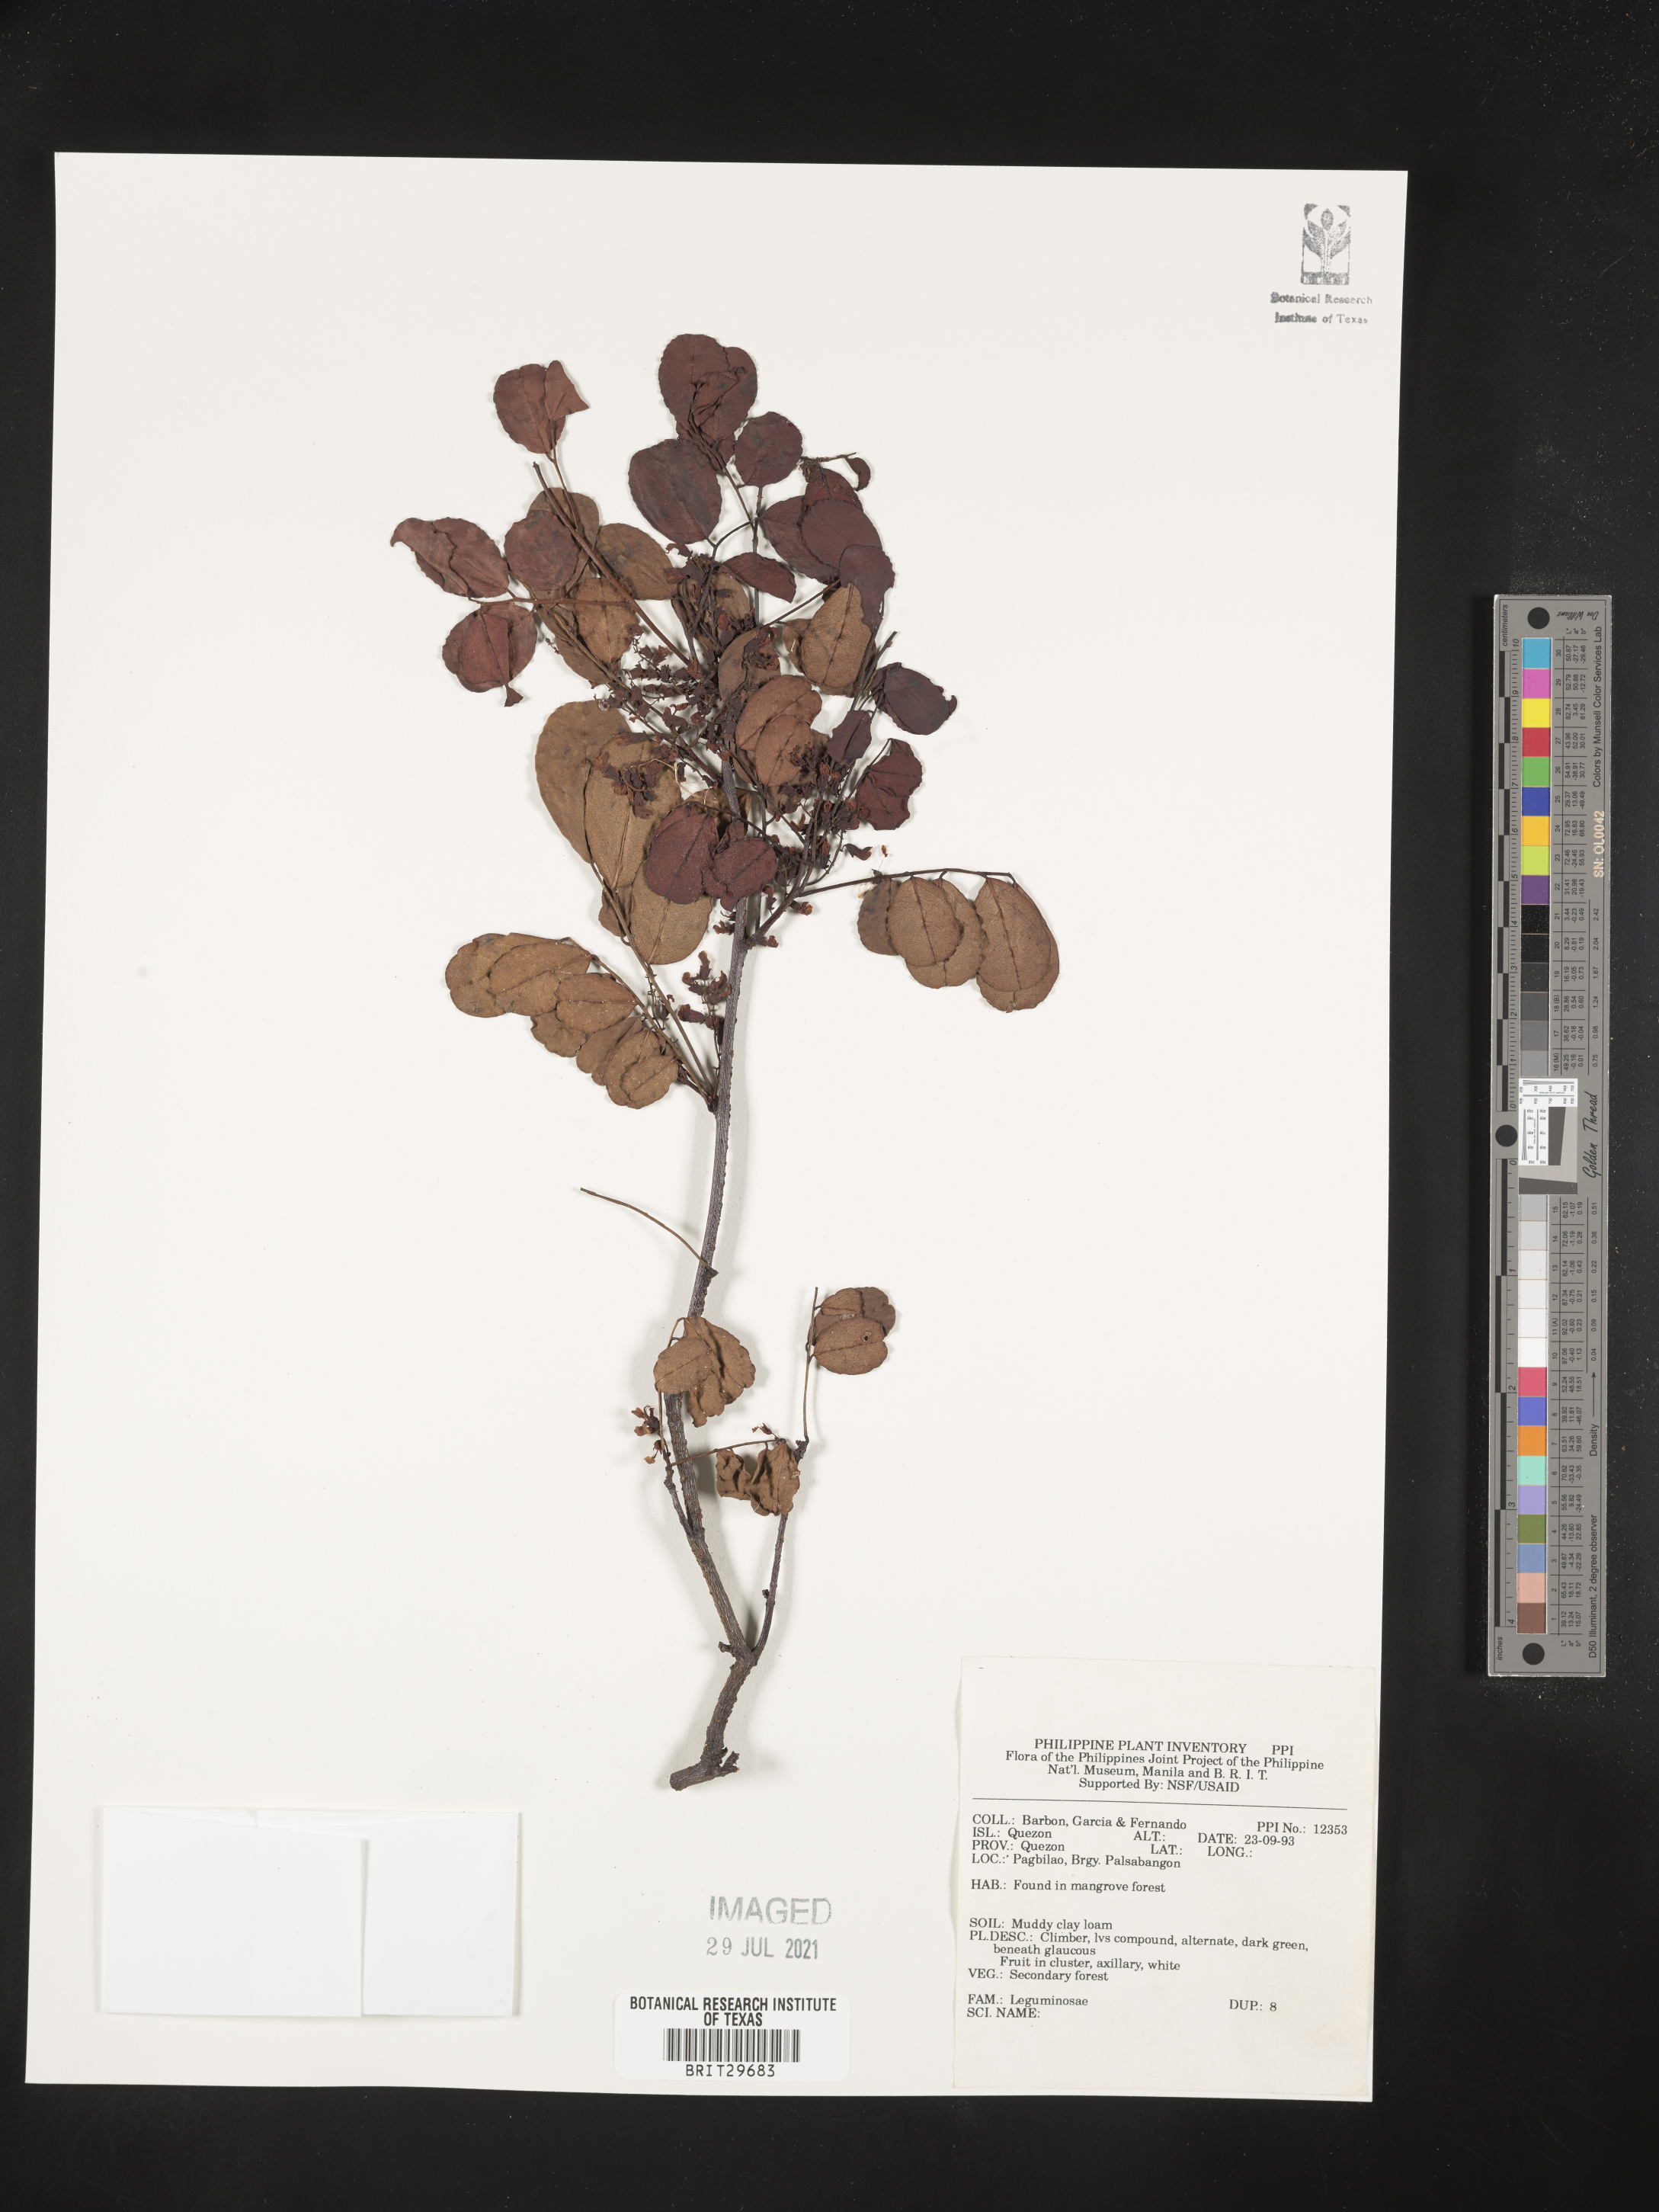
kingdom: Plantae
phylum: Tracheophyta
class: Magnoliopsida
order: Fabales
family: Fabaceae
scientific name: Fabaceae
